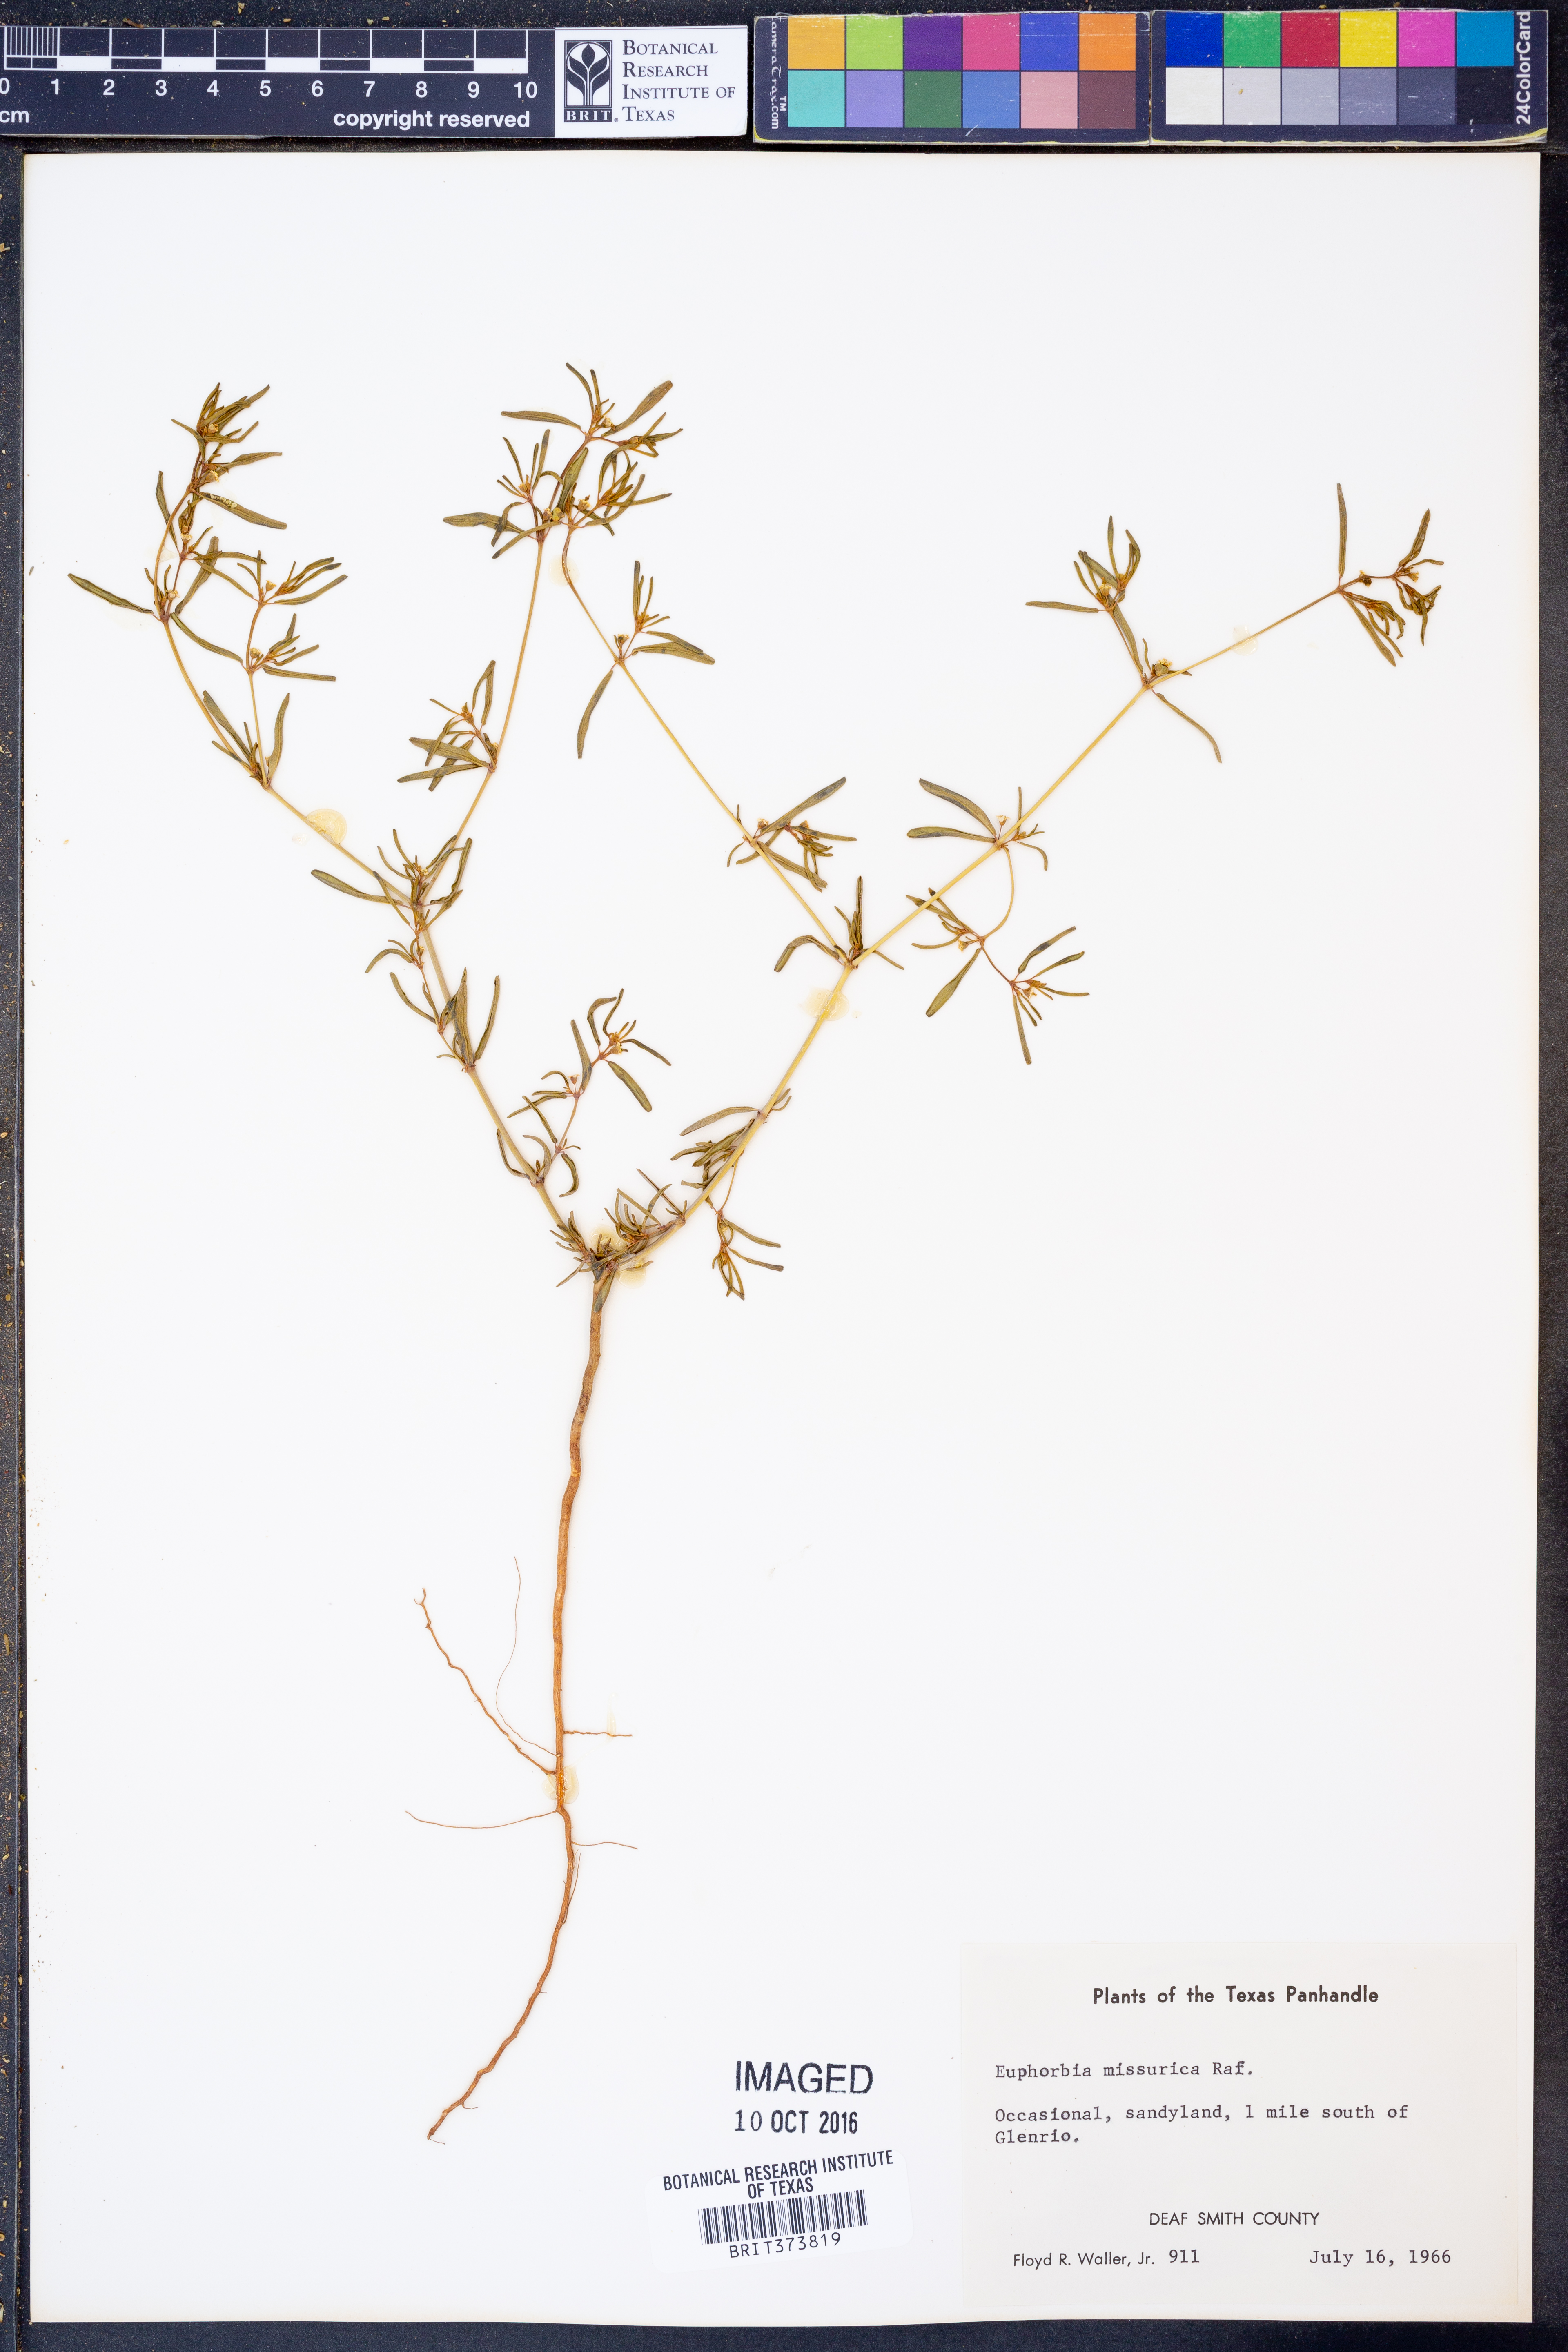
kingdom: Plantae
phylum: Tracheophyta
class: Magnoliopsida
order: Malpighiales
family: Euphorbiaceae
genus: Euphorbia
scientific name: Euphorbia missurica
